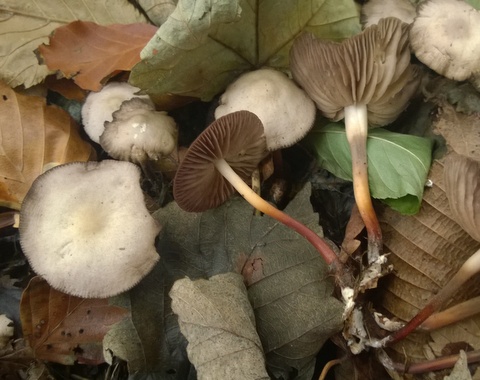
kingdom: Fungi
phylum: Basidiomycota
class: Agaricomycetes
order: Agaricales
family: Marasmiaceae
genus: Marasmius
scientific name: Marasmius wynneae
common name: hvælvet bruskhat
